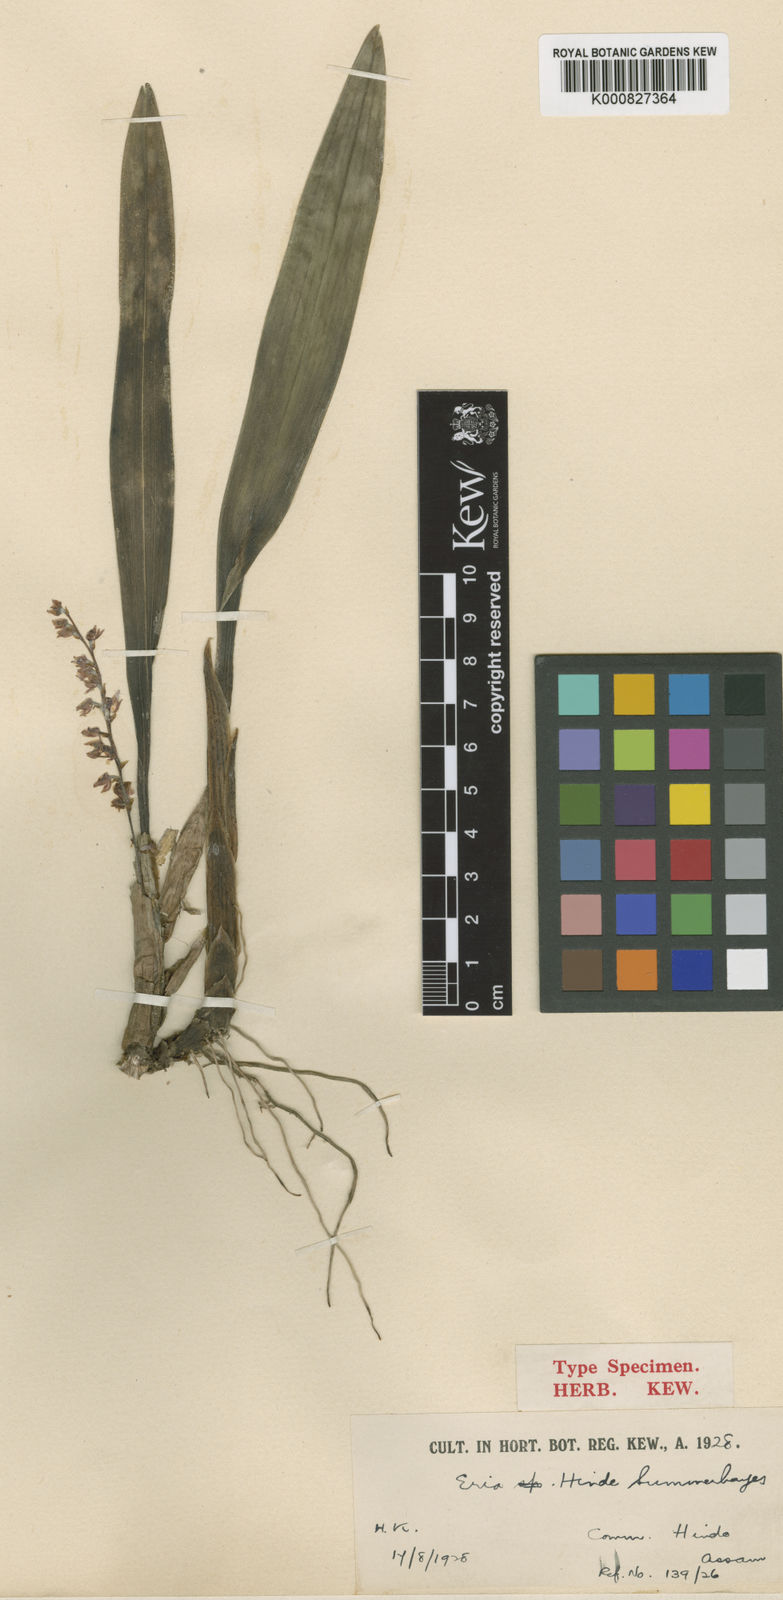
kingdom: Plantae
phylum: Tracheophyta
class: Liliopsida
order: Asparagales
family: Orchidaceae
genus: Bryobium
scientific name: Bryobium pudicum
